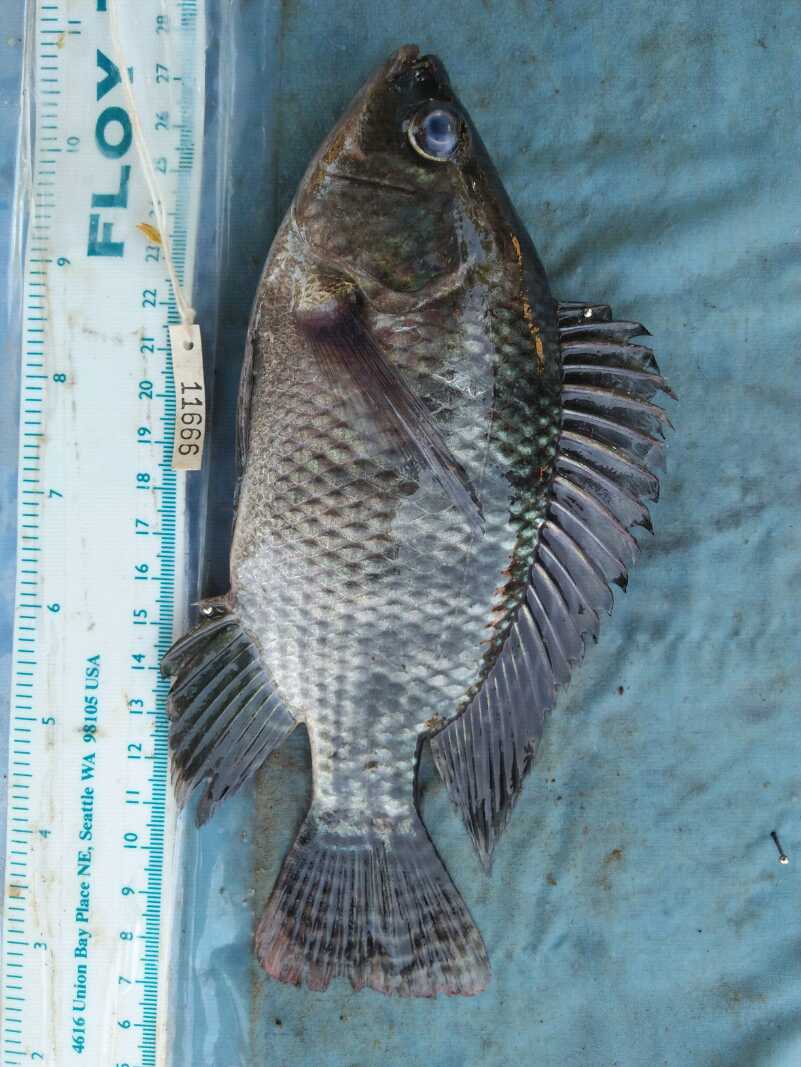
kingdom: Animalia
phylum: Chordata
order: Perciformes
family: Cichlidae
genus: Oreochromis
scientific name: Oreochromis niloticus
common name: Nile tilapia
